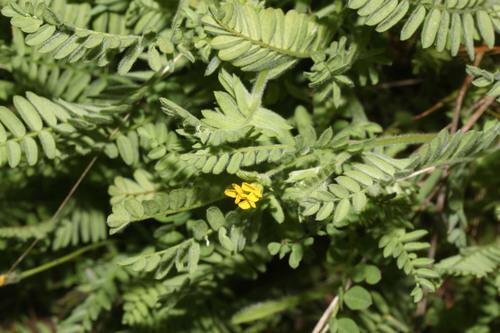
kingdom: Plantae
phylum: Tracheophyta
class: Magnoliopsida
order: Fabales
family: Fabaceae
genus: Ornithopus
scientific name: Ornithopus compressus
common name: Yellow serradella
